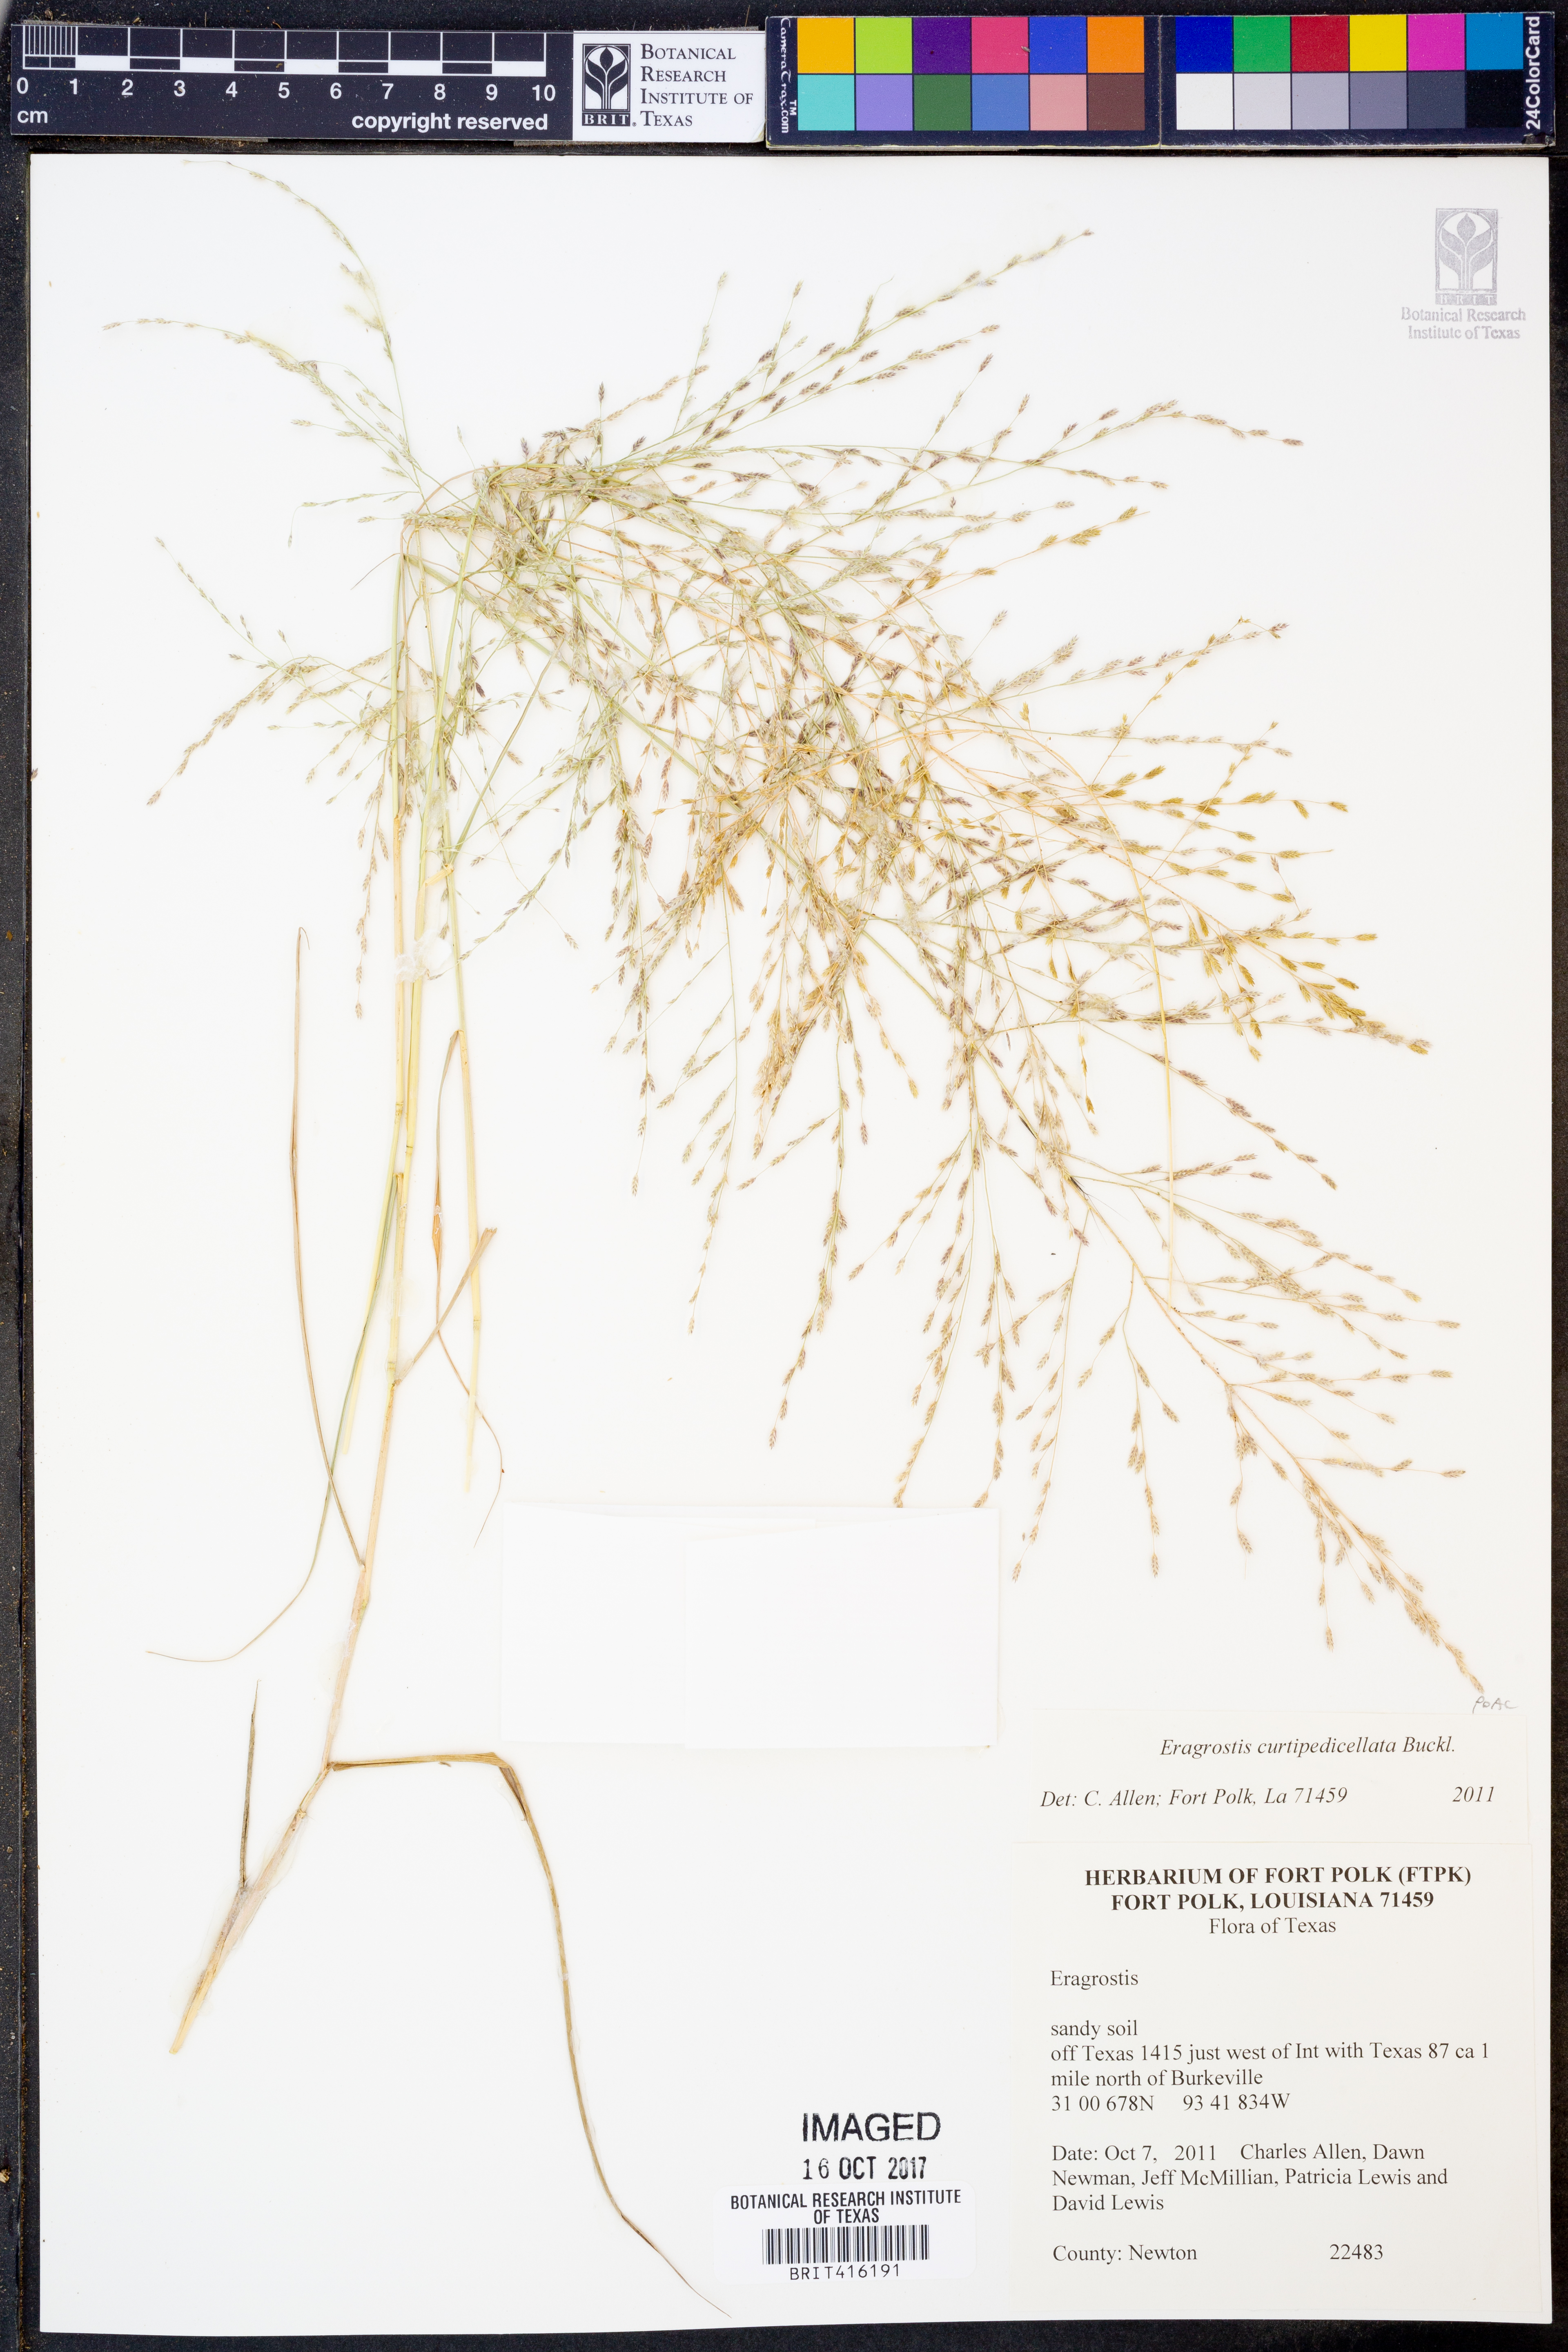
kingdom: Plantae
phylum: Tracheophyta
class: Liliopsida
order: Poales
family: Poaceae
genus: Eragrostis
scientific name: Eragrostis curtipedicellata
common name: Gummy love grass
